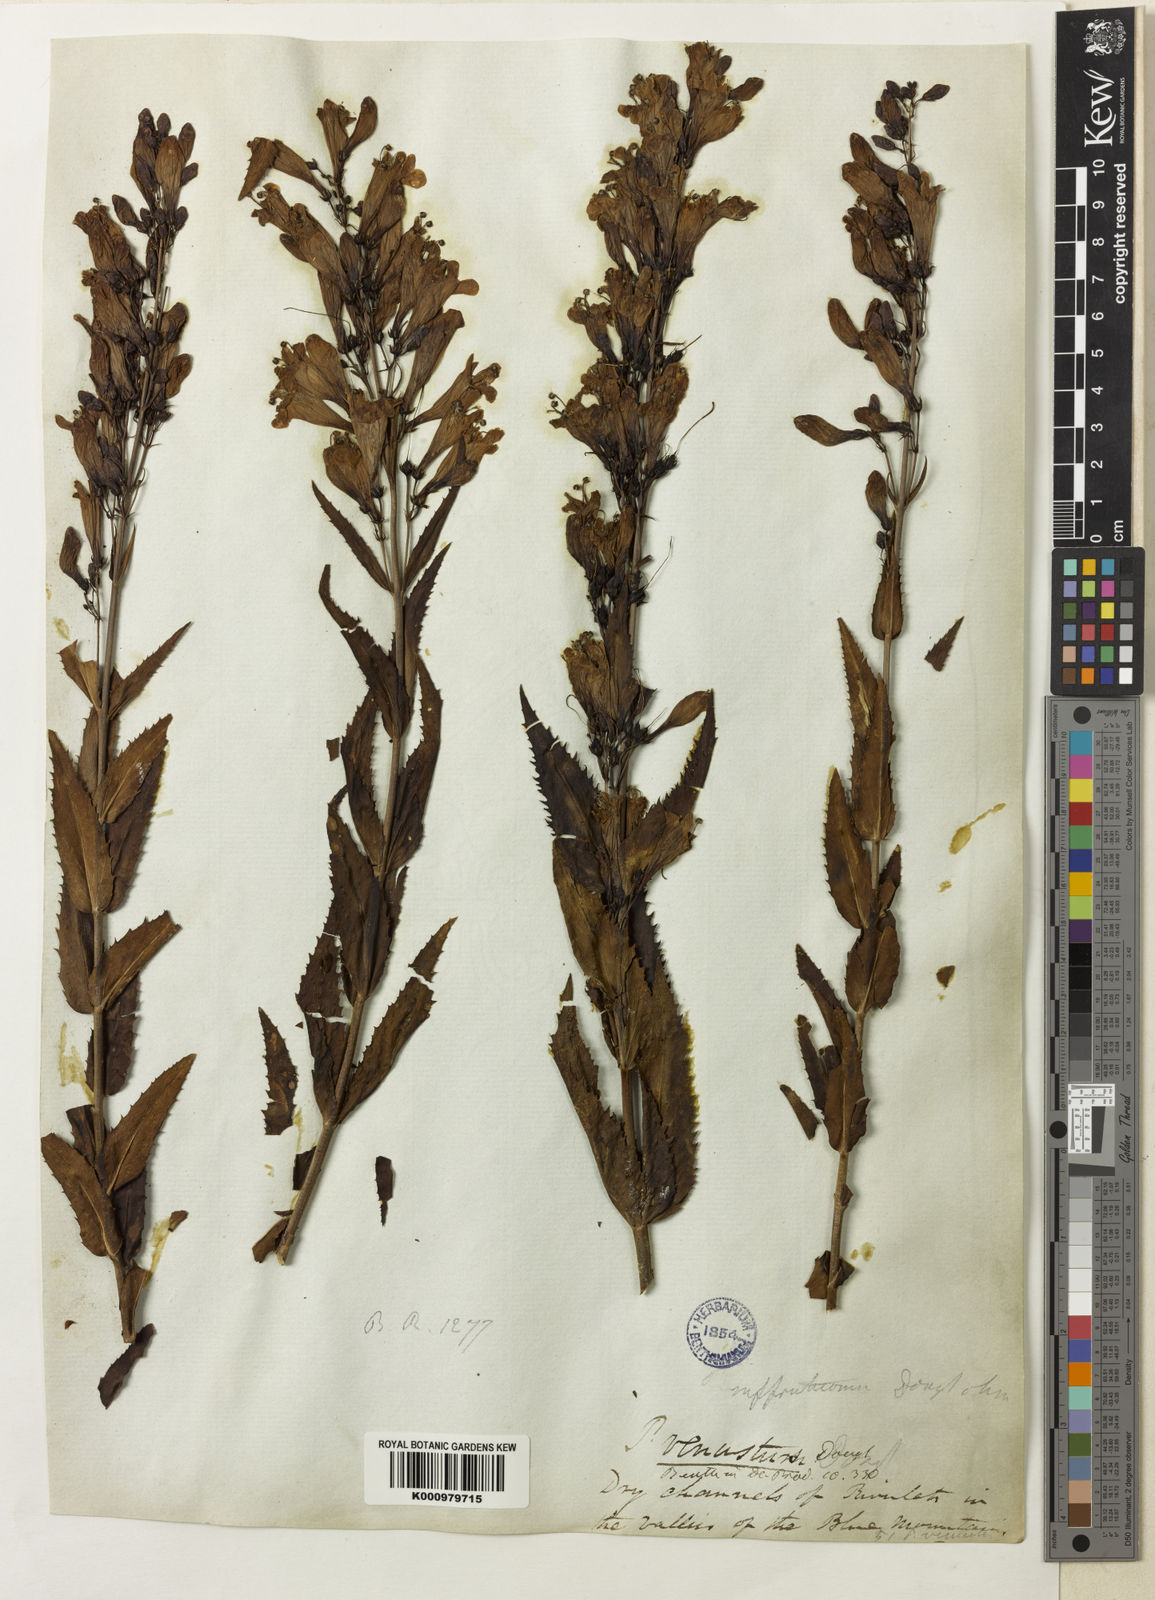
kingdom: Plantae
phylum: Tracheophyta
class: Magnoliopsida
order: Lamiales
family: Plantaginaceae
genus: Penstemon
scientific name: Penstemon
